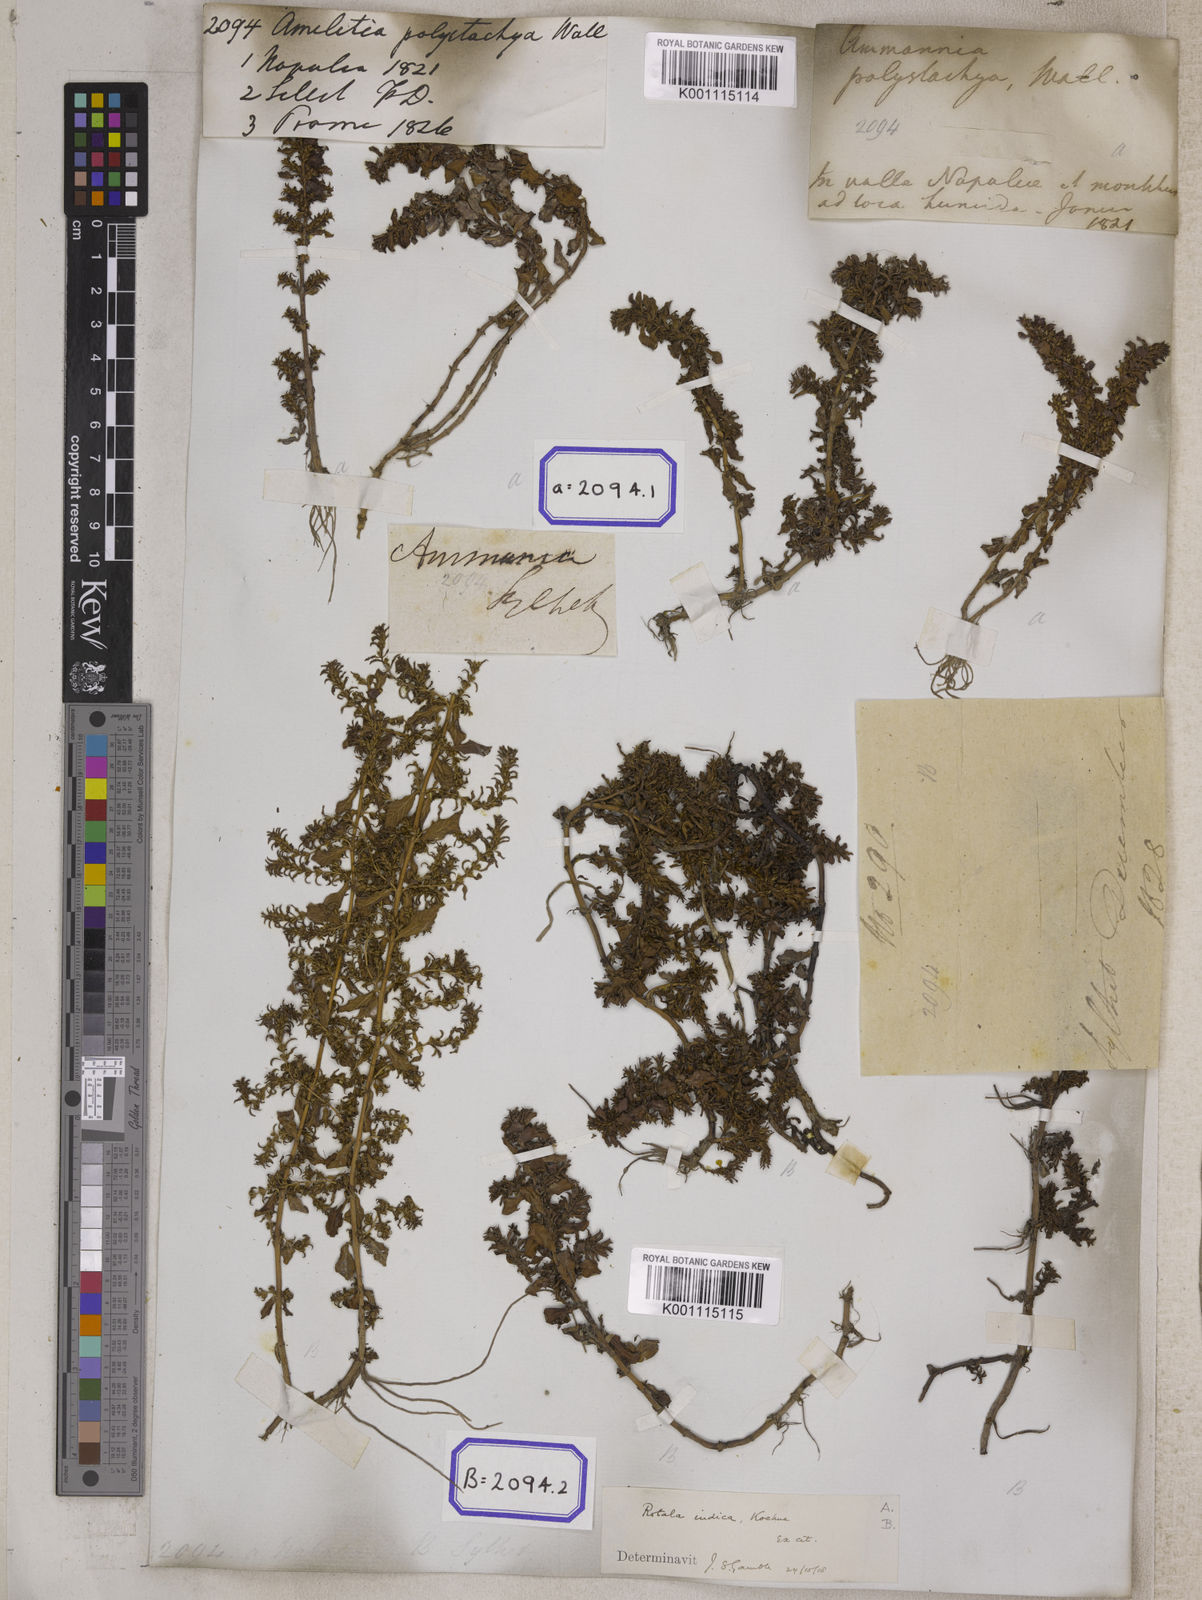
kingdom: Plantae
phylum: Tracheophyta
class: Magnoliopsida
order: Myrtales
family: Lythraceae
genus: Ammannia
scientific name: Ammannia
